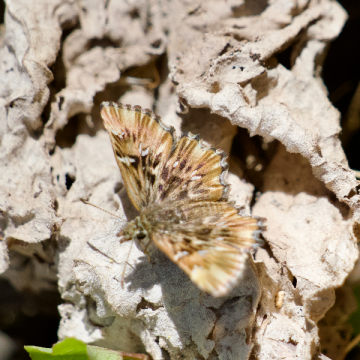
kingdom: Animalia
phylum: Arthropoda
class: Insecta
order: Lepidoptera
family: Hesperiidae
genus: Celotes
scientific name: Celotes nessus
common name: Common Streaky-Skipper
